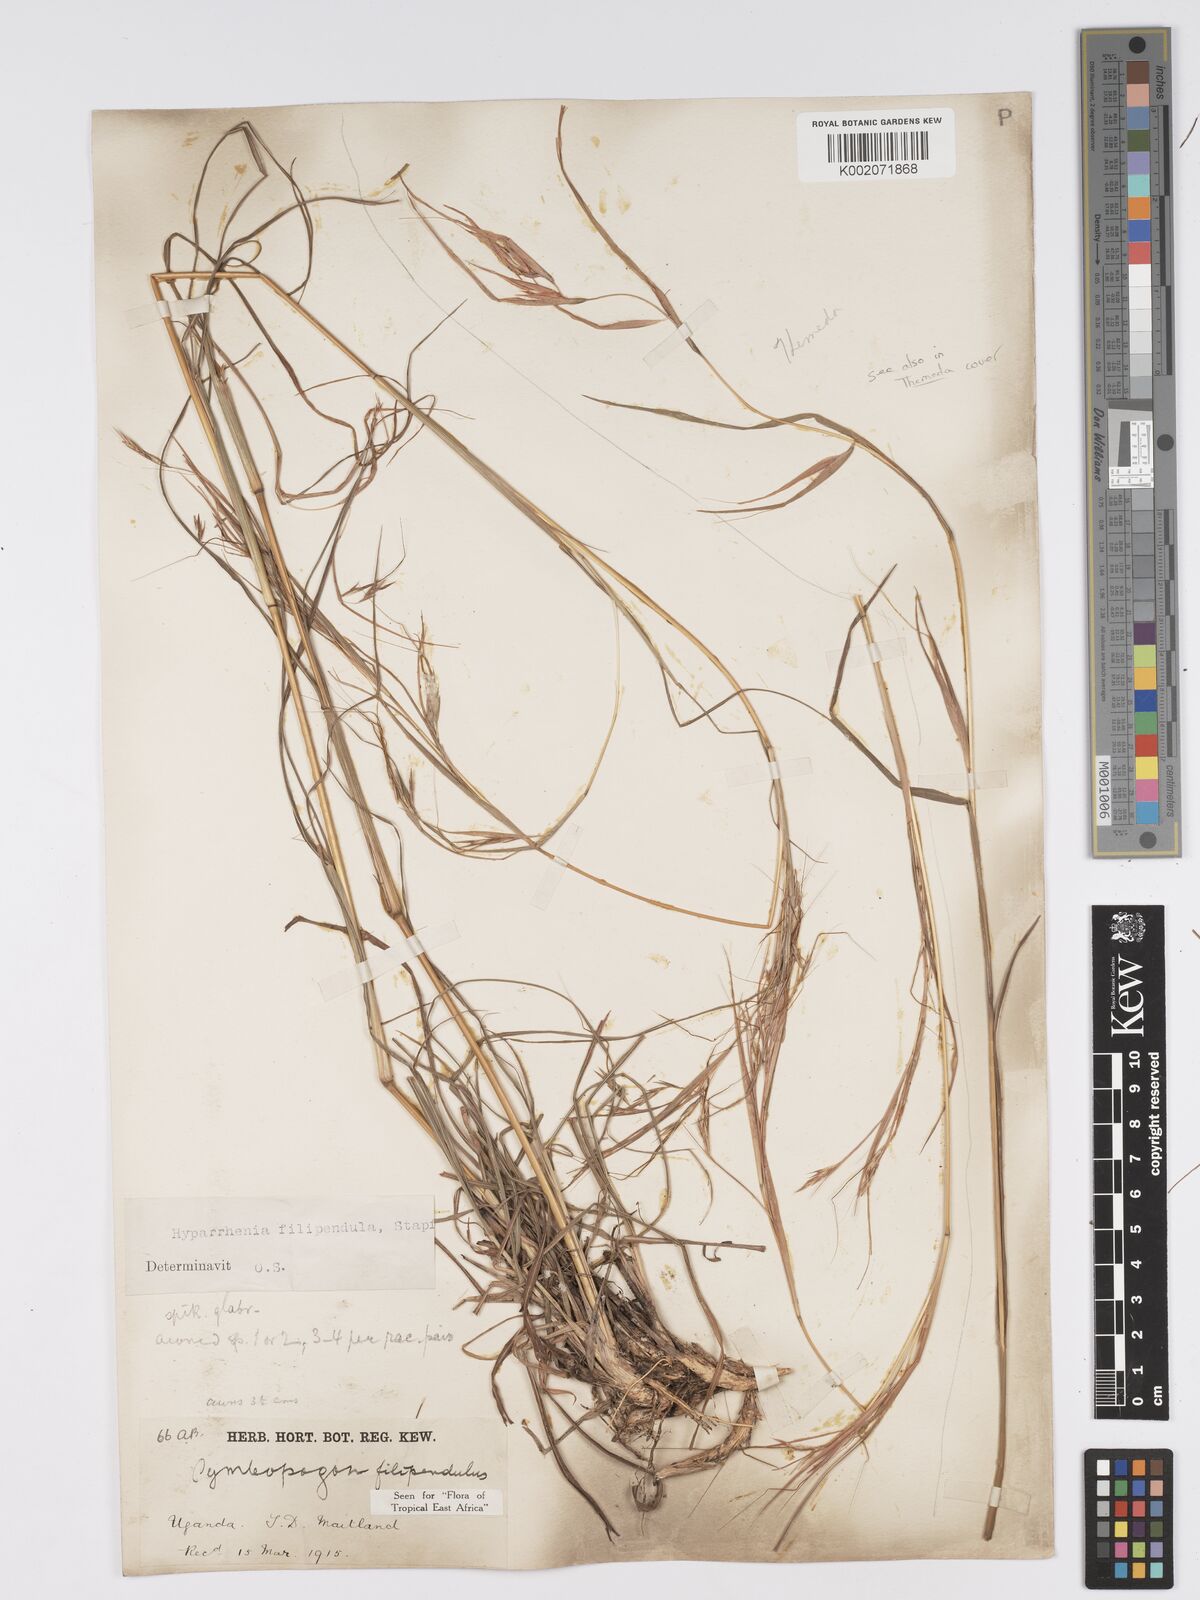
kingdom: Plantae
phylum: Tracheophyta
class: Liliopsida
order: Poales
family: Poaceae
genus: Hyparrhenia
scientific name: Hyparrhenia filipendula
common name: Tambookie grass
